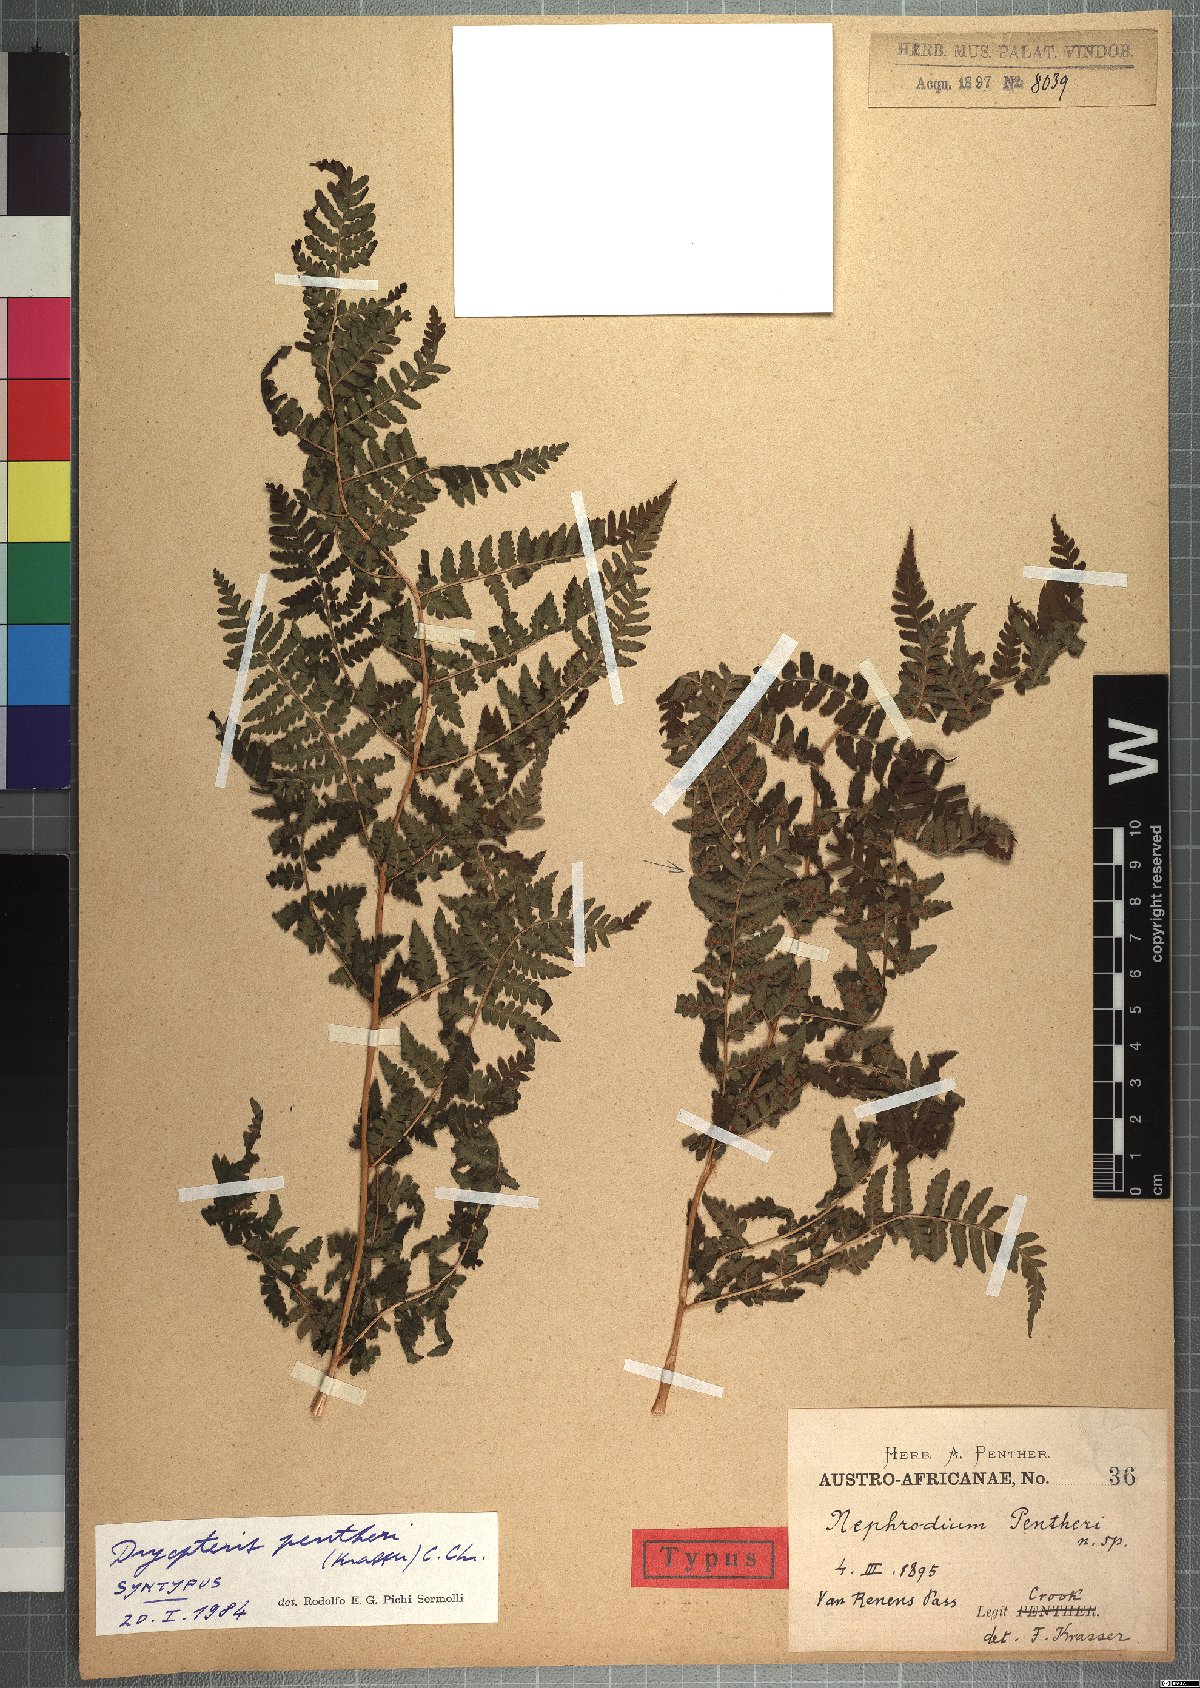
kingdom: Plantae
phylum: Tracheophyta
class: Polypodiopsida
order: Polypodiales
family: Dryopteridaceae
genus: Dryopteris
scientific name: Dryopteris pentheri
